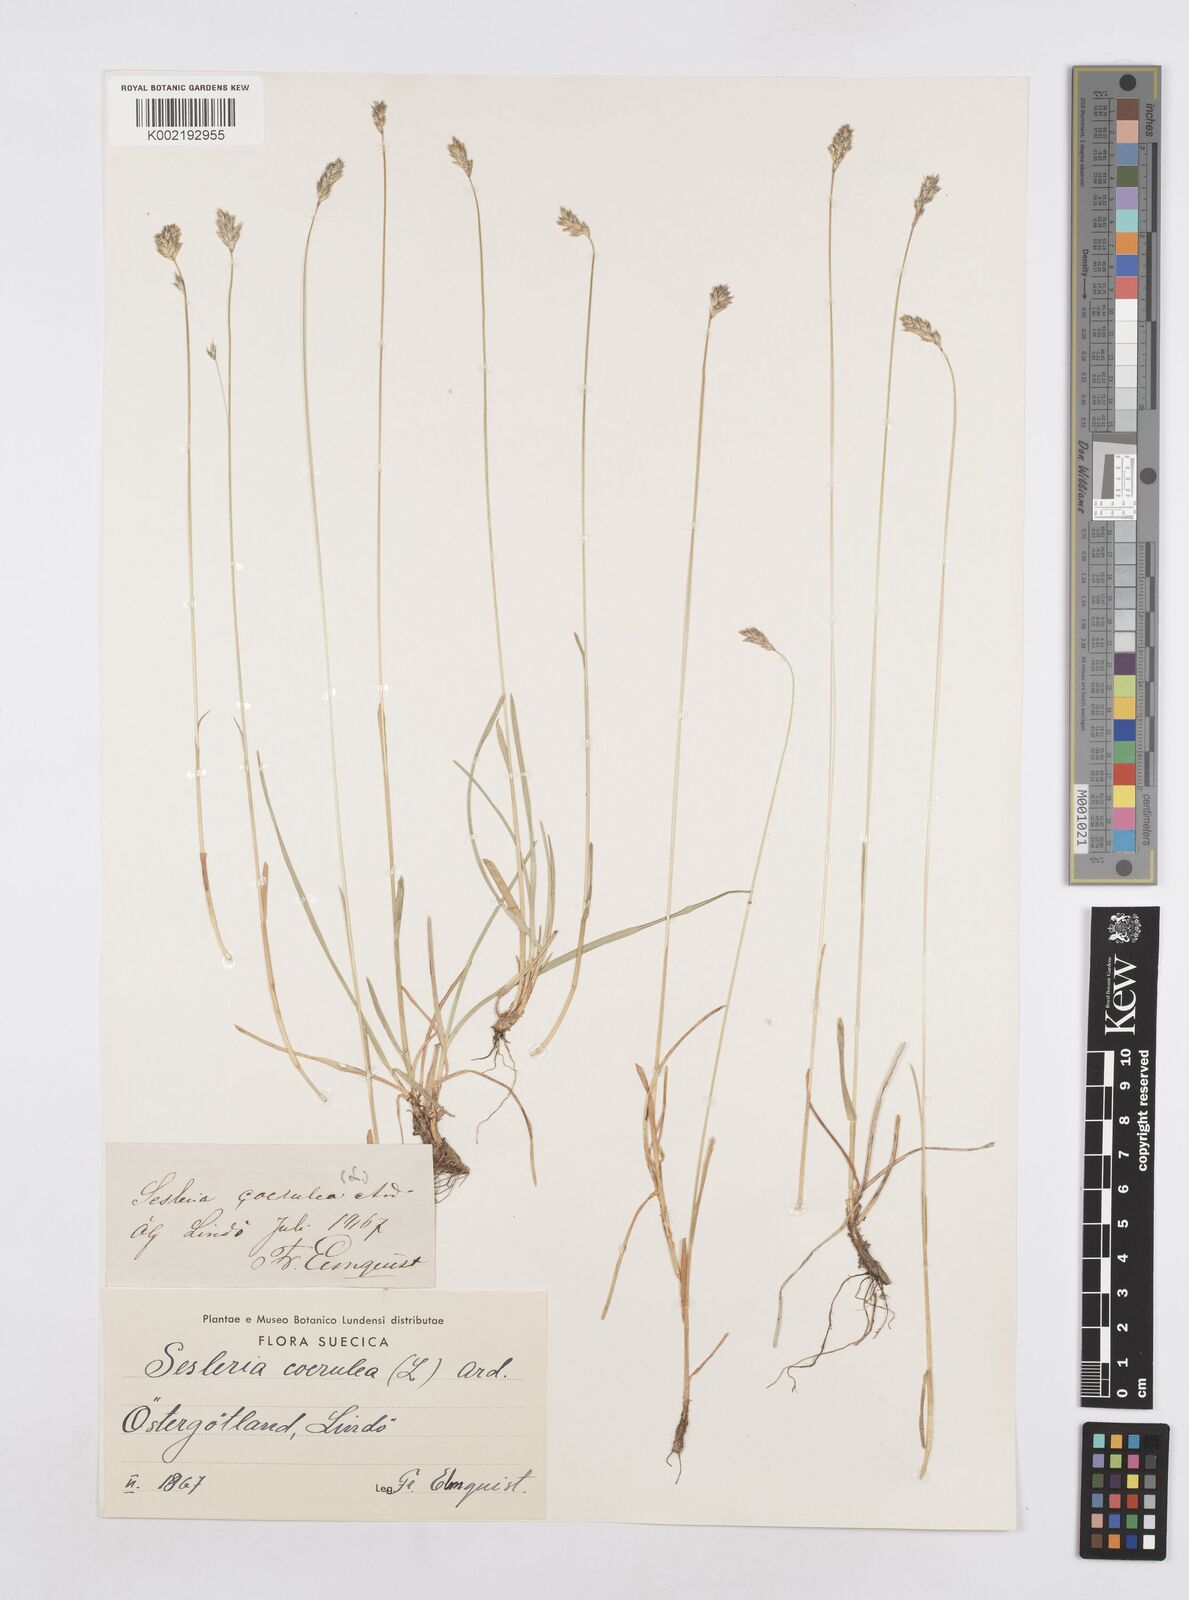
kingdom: Plantae
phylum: Tracheophyta
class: Liliopsida
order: Poales
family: Poaceae
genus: Sesleria
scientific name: Sesleria caerulea
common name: Blue moor-grass
